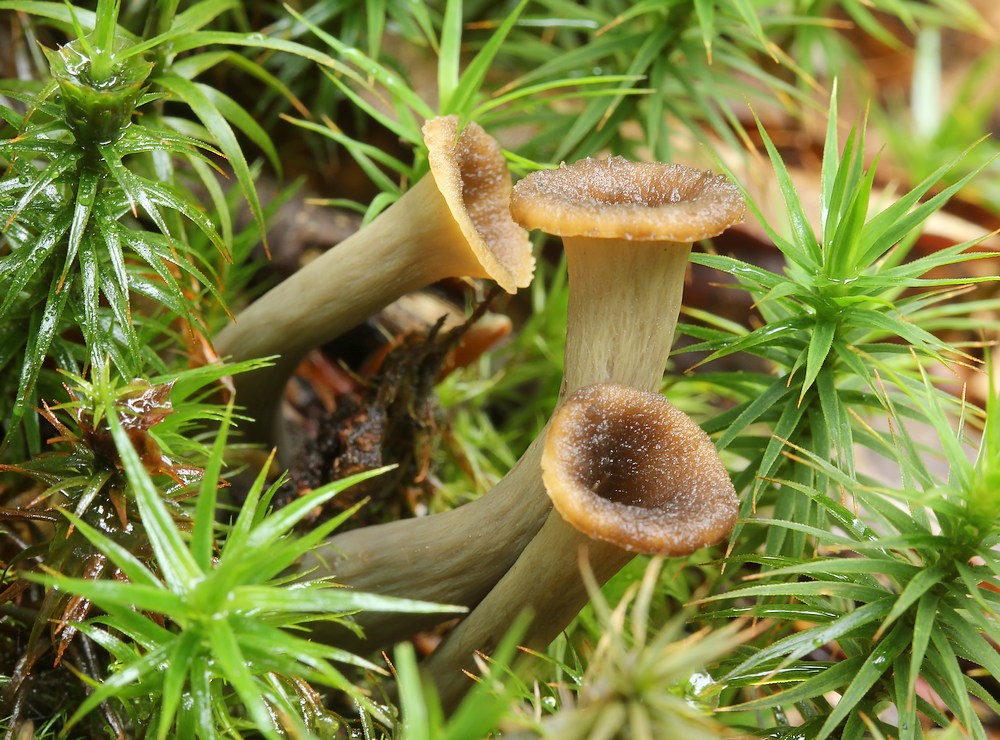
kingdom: Fungi
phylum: Basidiomycota
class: Agaricomycetes
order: Cantharellales
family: Hydnaceae
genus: Craterellus
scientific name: Craterellus cornucopioides
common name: trompetsvamp
